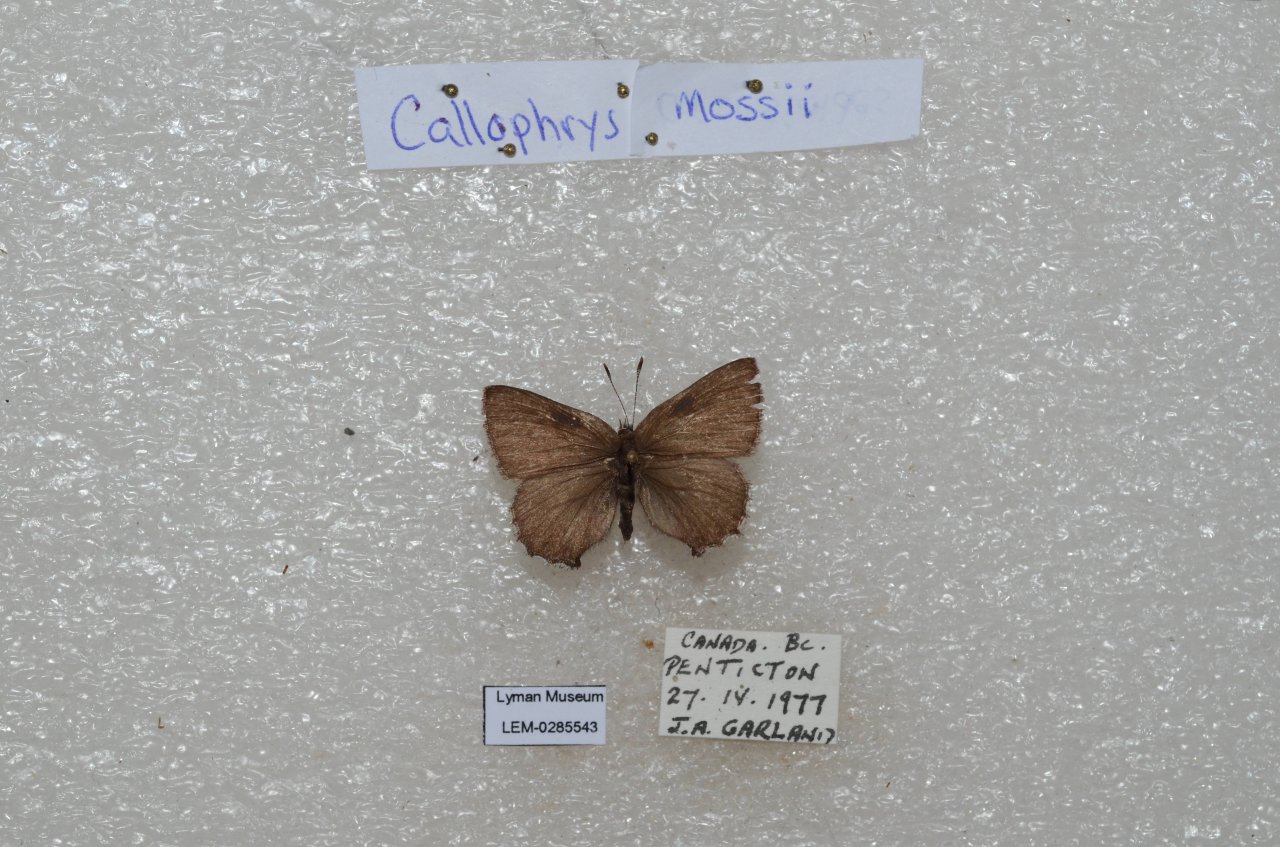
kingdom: Animalia
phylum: Arthropoda
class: Insecta
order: Lepidoptera
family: Lycaenidae
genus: Callophrys
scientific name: Callophrys mossii
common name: Moss' Elfin
